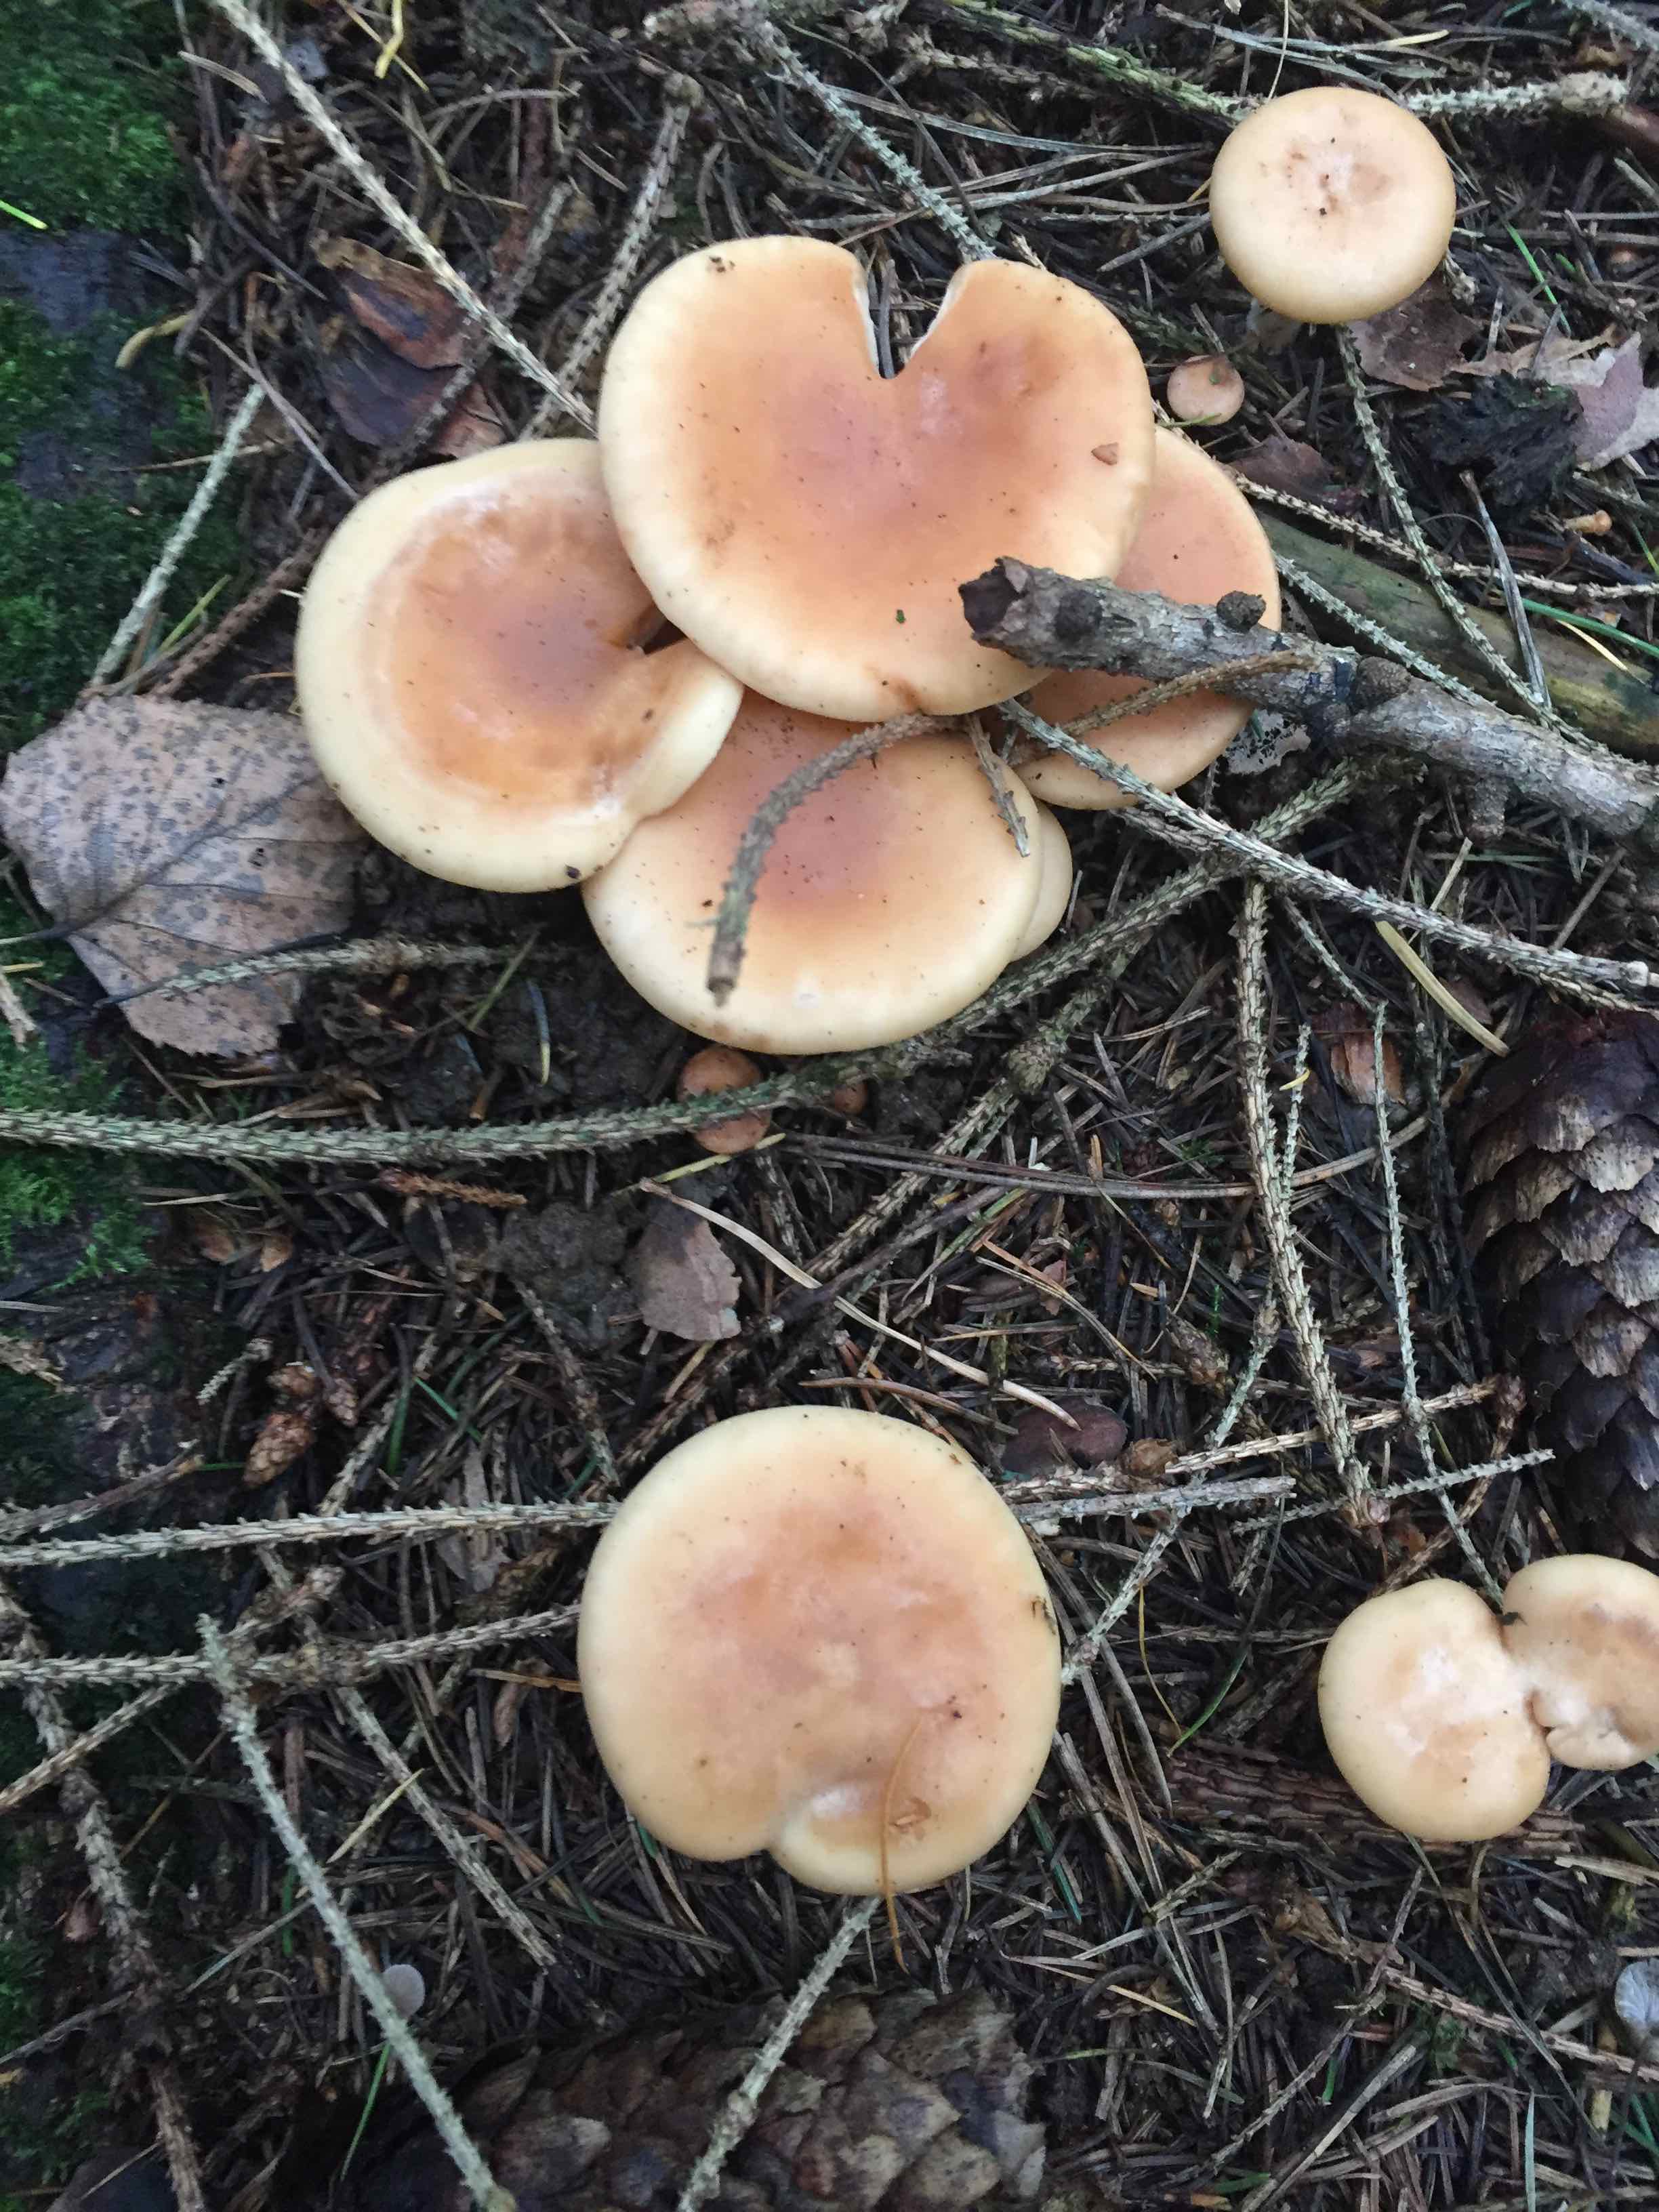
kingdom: Fungi
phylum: Basidiomycota
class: Agaricomycetes
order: Agaricales
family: Tricholomataceae
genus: Paralepista
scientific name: Paralepista flaccida
